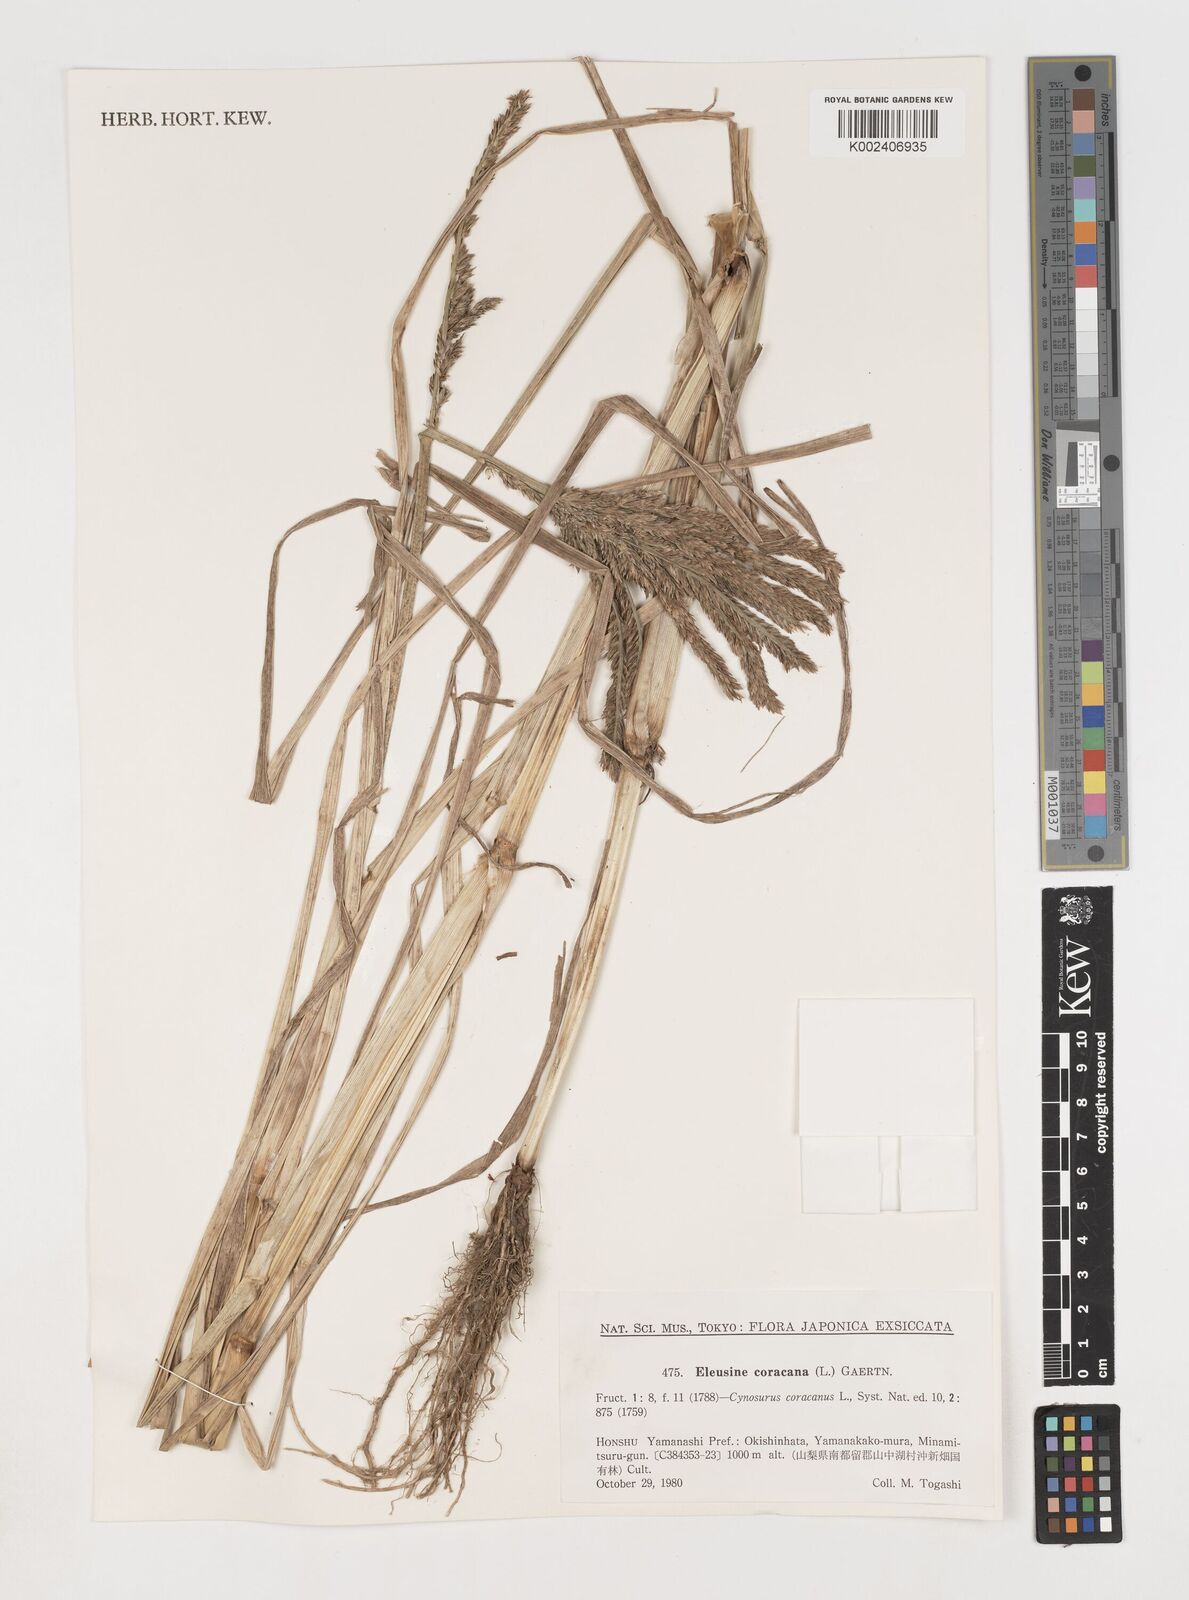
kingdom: Plantae
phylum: Tracheophyta
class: Liliopsida
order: Poales
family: Poaceae
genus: Eleusine
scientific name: Eleusine coracana
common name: Finger millet
